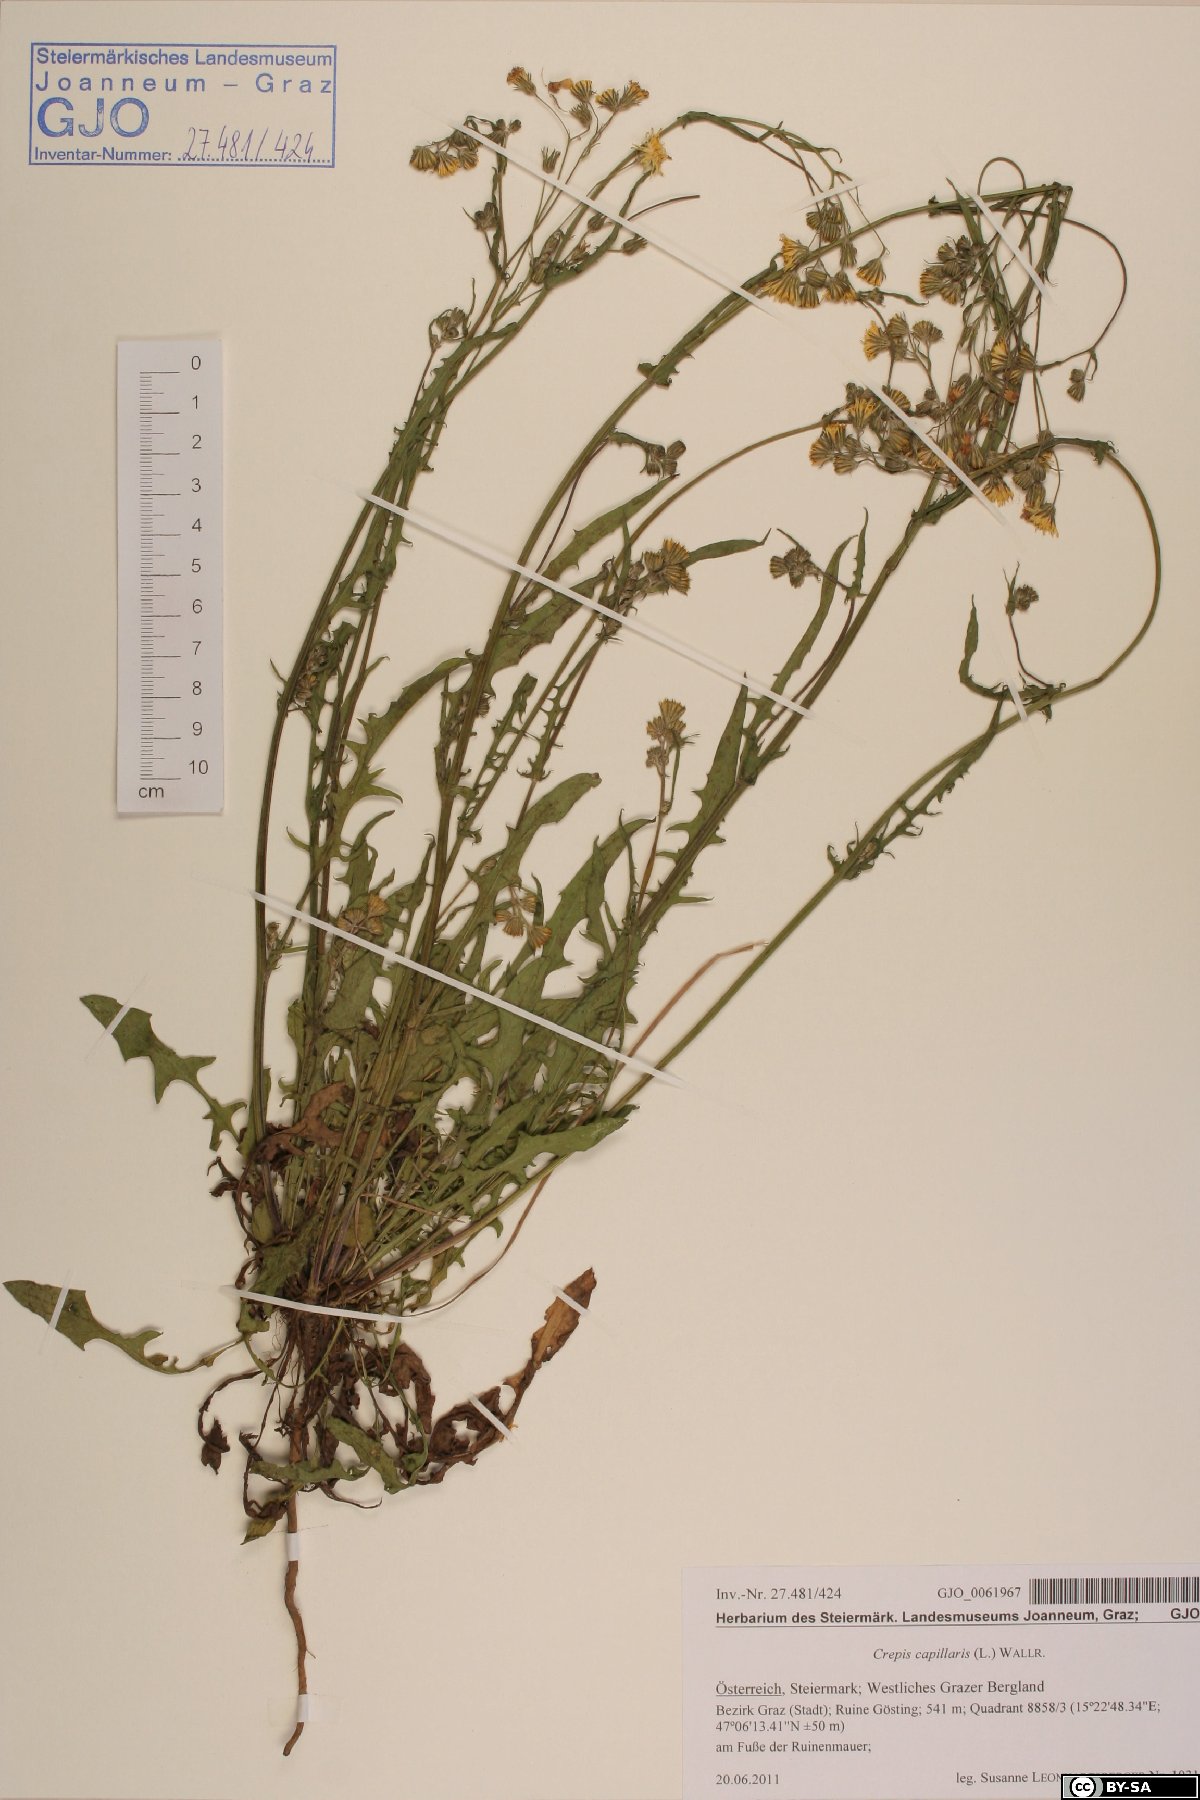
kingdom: Plantae
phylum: Tracheophyta
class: Magnoliopsida
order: Asterales
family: Asteraceae
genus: Crepis
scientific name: Crepis capillaris
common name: Smooth hawksbeard
